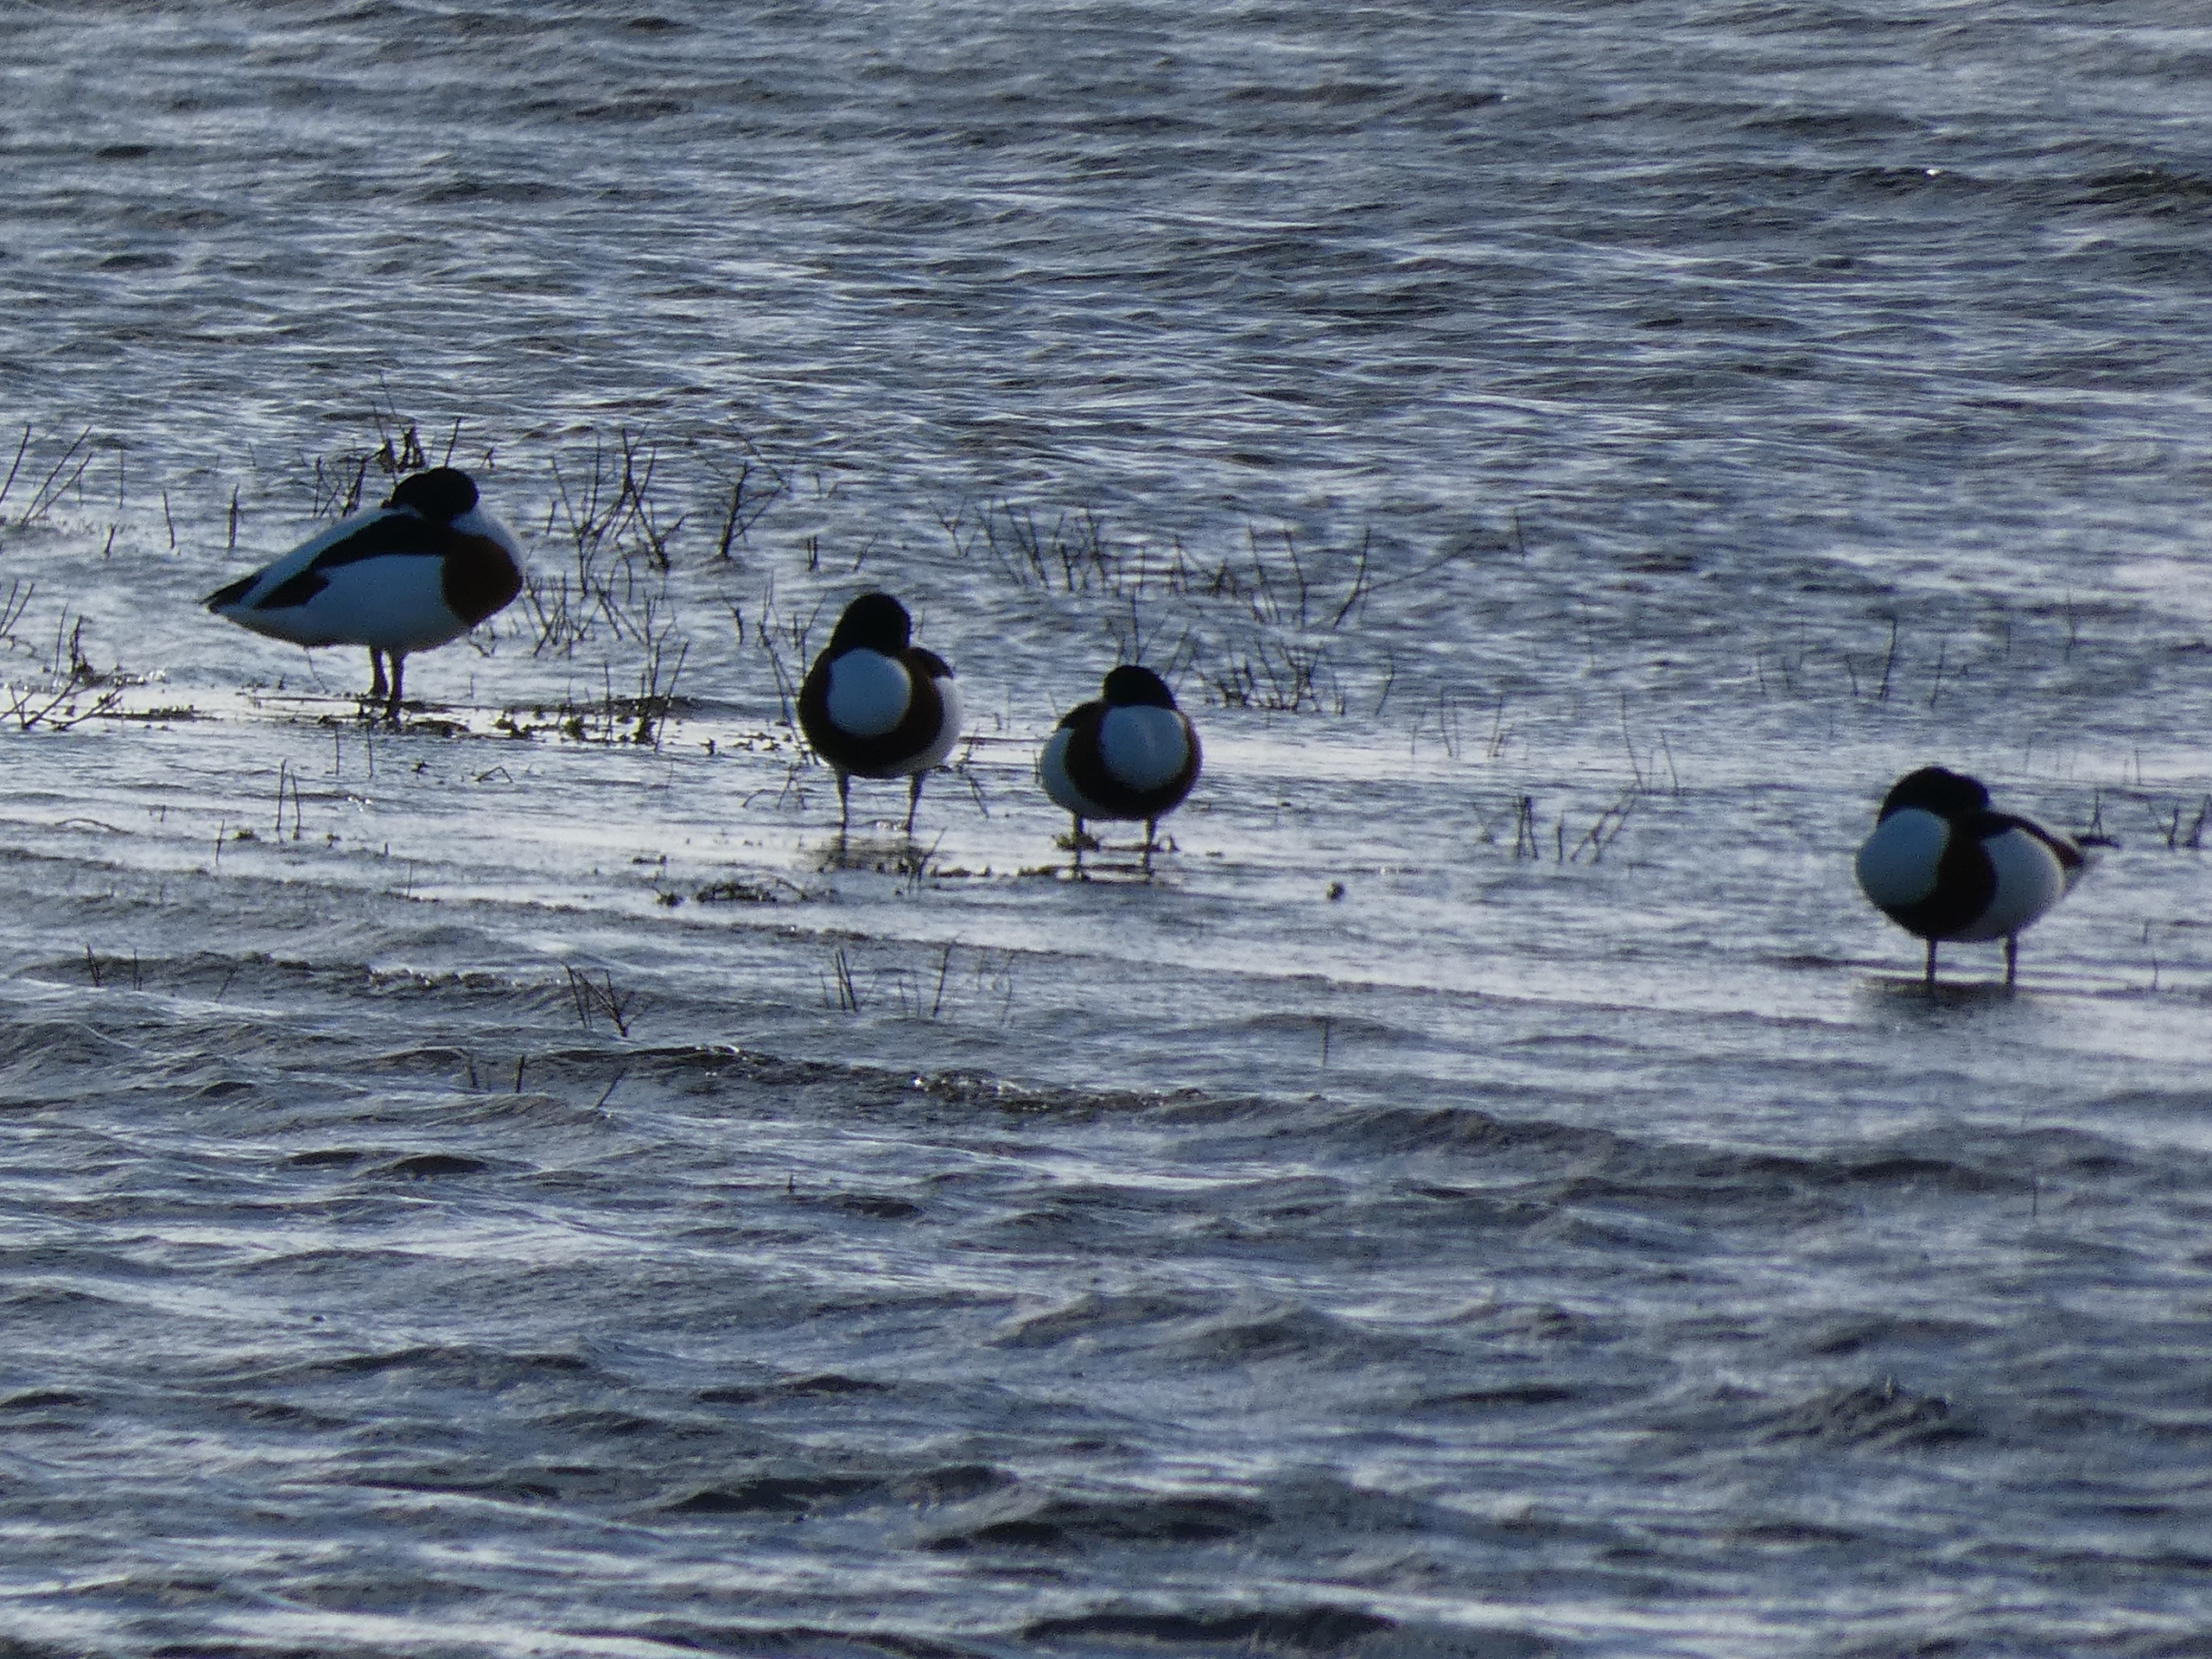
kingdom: Animalia
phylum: Chordata
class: Aves
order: Anseriformes
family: Anatidae
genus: Tadorna
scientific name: Tadorna tadorna
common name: Gravand
